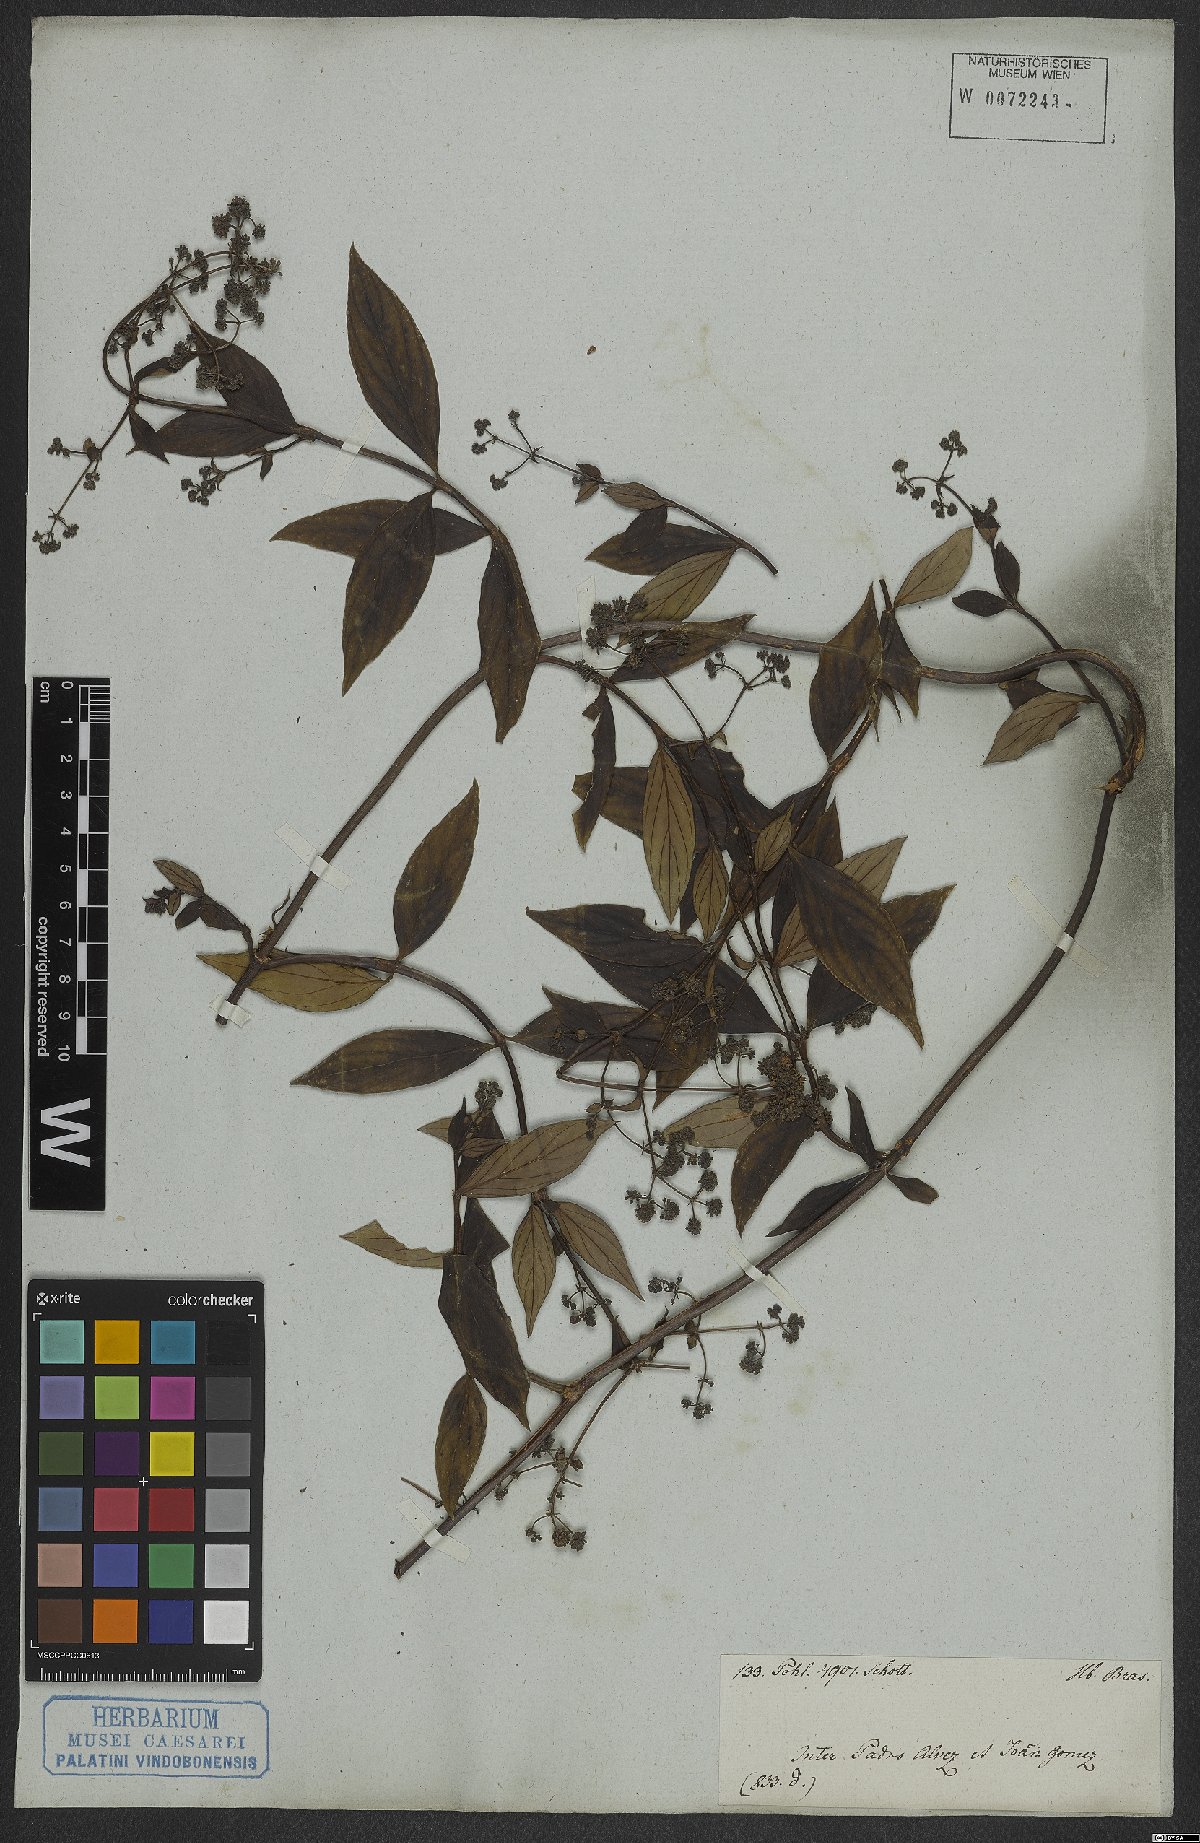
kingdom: Plantae
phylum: Tracheophyta
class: Magnoliopsida
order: Gentianales
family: Rubiaceae
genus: Emmeorhiza
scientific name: Emmeorhiza
